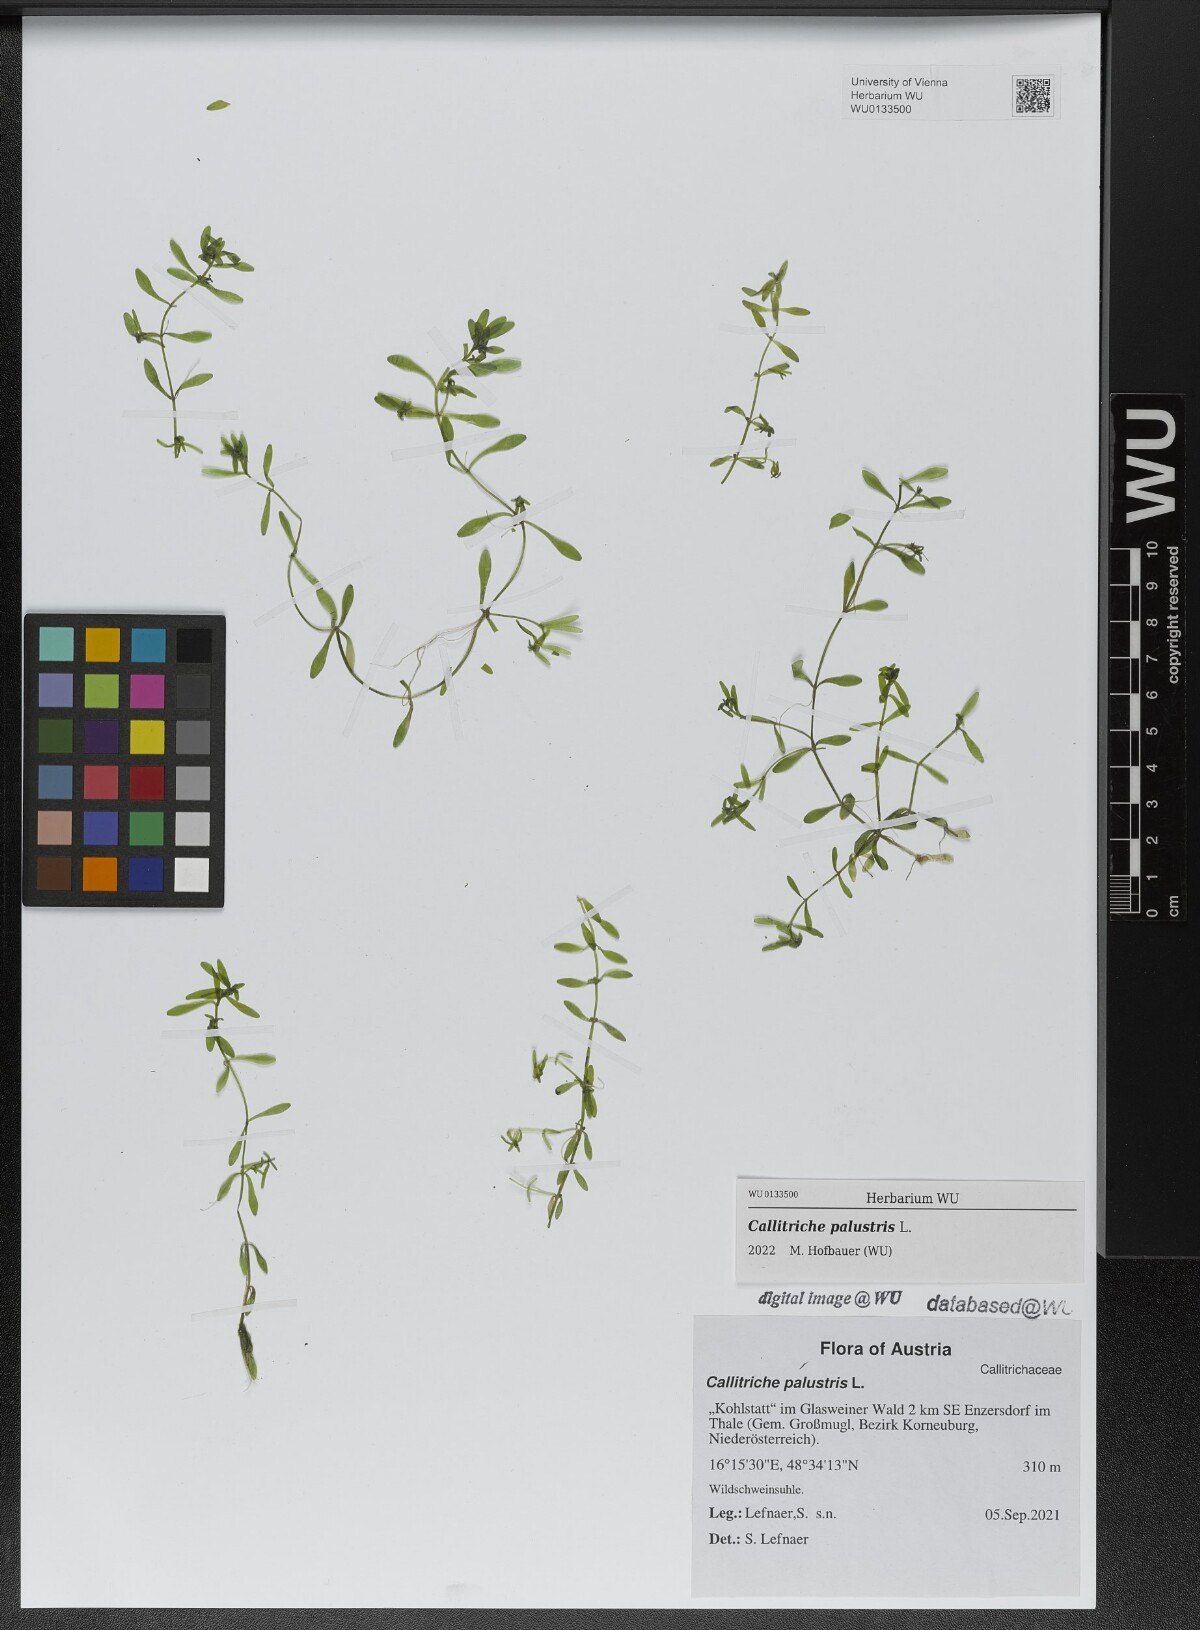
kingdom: Plantae
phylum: Tracheophyta
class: Magnoliopsida
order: Lamiales
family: Plantaginaceae
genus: Callitriche
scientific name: Callitriche palustris
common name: Spring water-starwort
